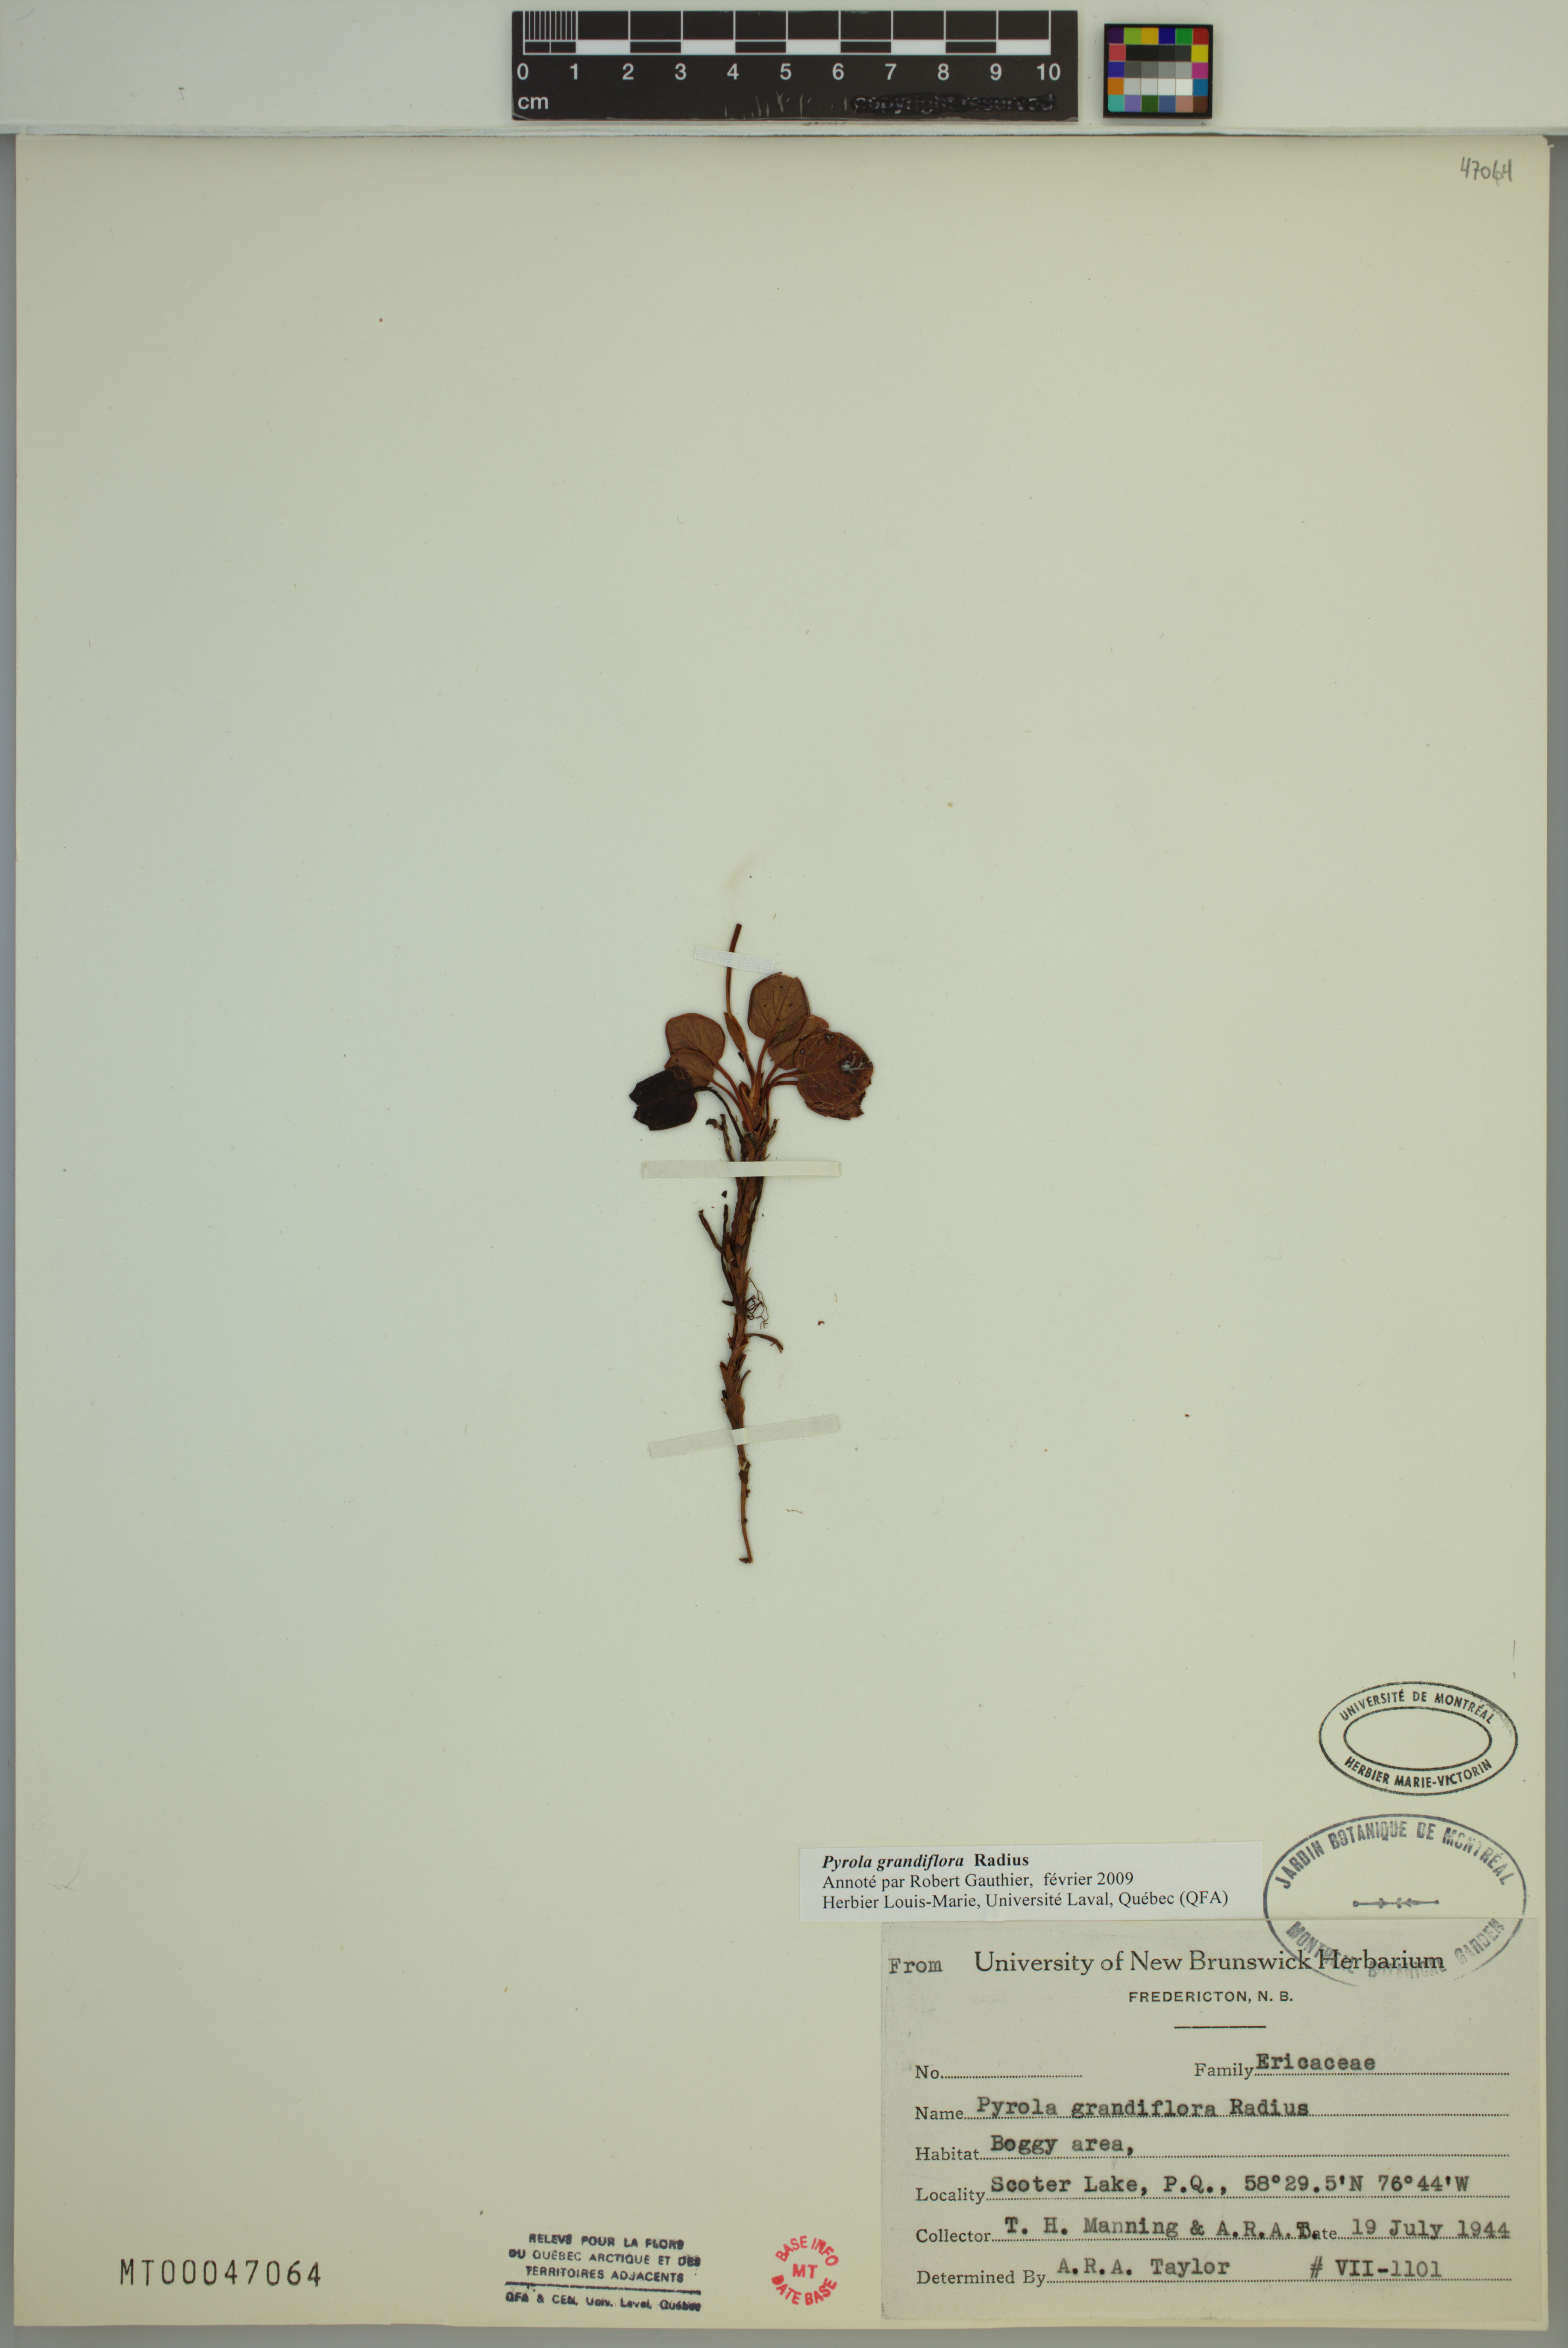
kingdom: Plantae
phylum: Tracheophyta
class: Magnoliopsida
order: Ericales
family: Ericaceae
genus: Pyrola
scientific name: Pyrola grandiflora
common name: Arctic pyrola
